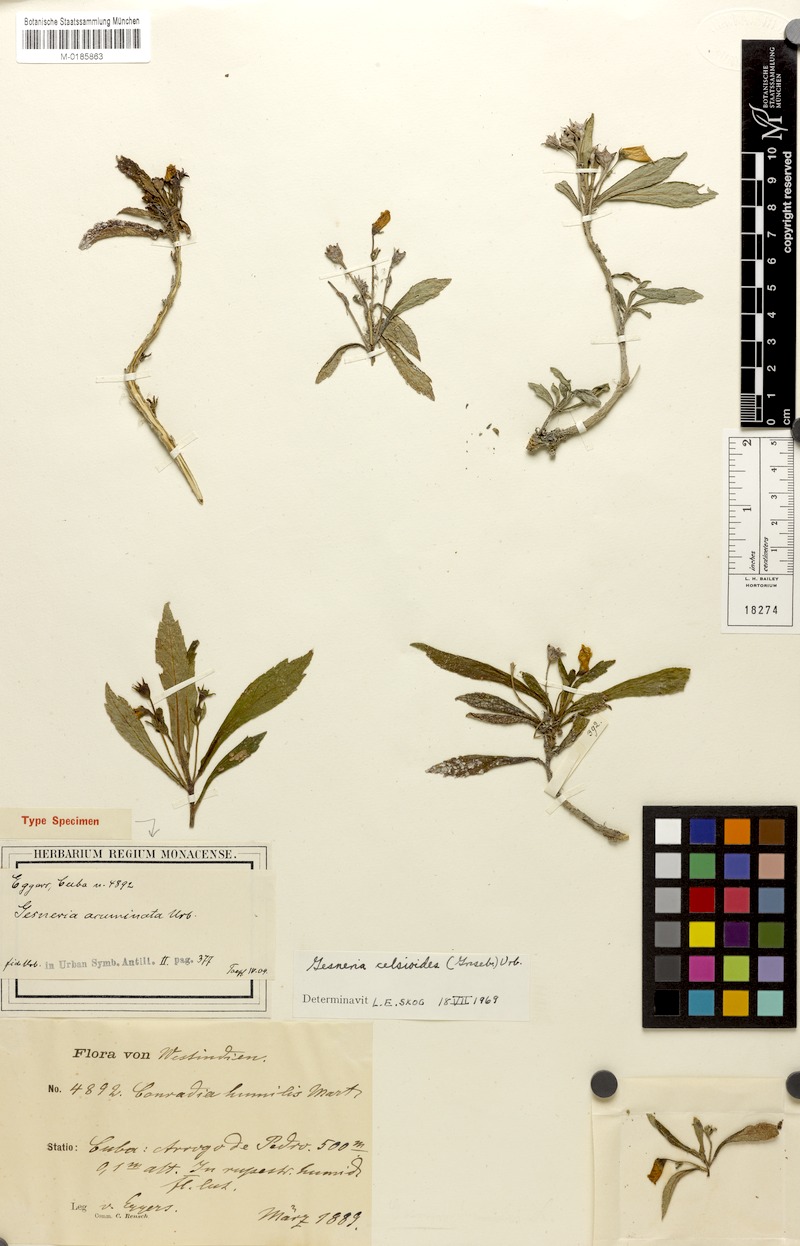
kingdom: Plantae
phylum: Tracheophyta
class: Magnoliopsida
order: Lamiales
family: Gesneriaceae
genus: Gesneria
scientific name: Gesneria humilis
